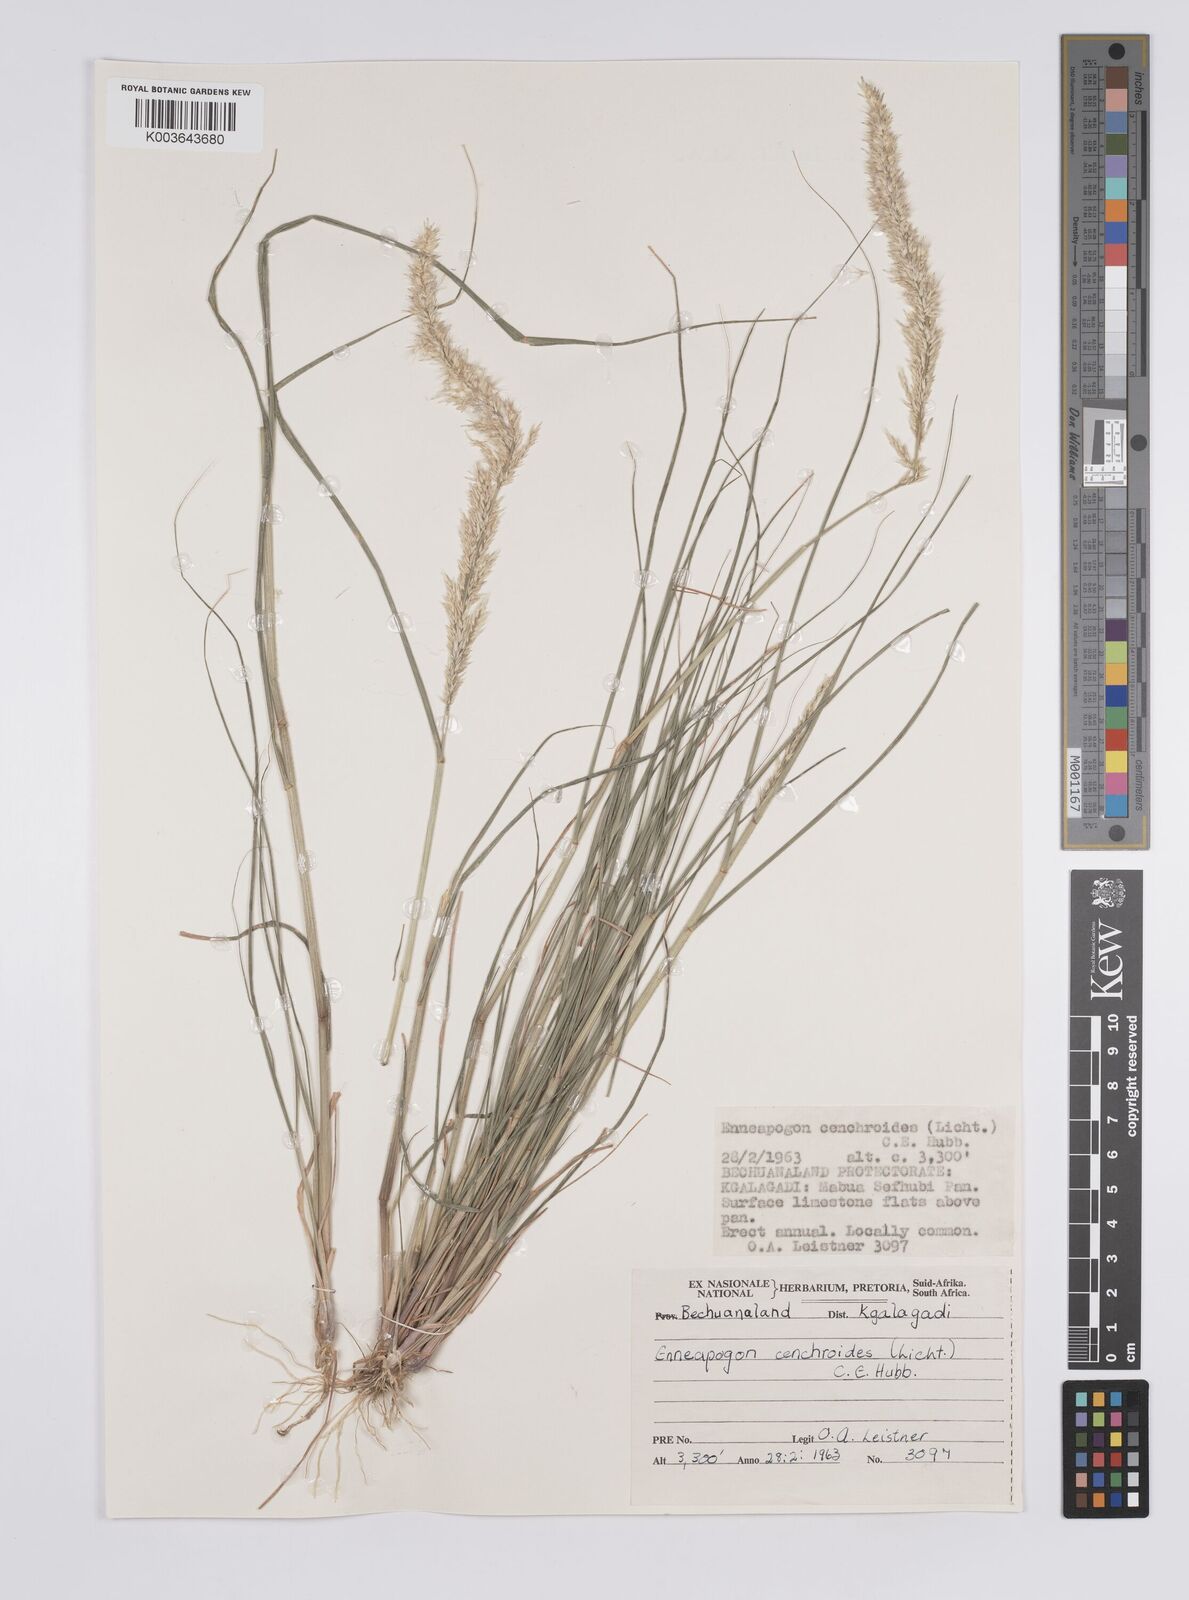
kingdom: Plantae
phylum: Tracheophyta
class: Liliopsida
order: Poales
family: Poaceae
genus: Enneapogon
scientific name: Enneapogon cenchroides
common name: Soft feather pappusgrass
